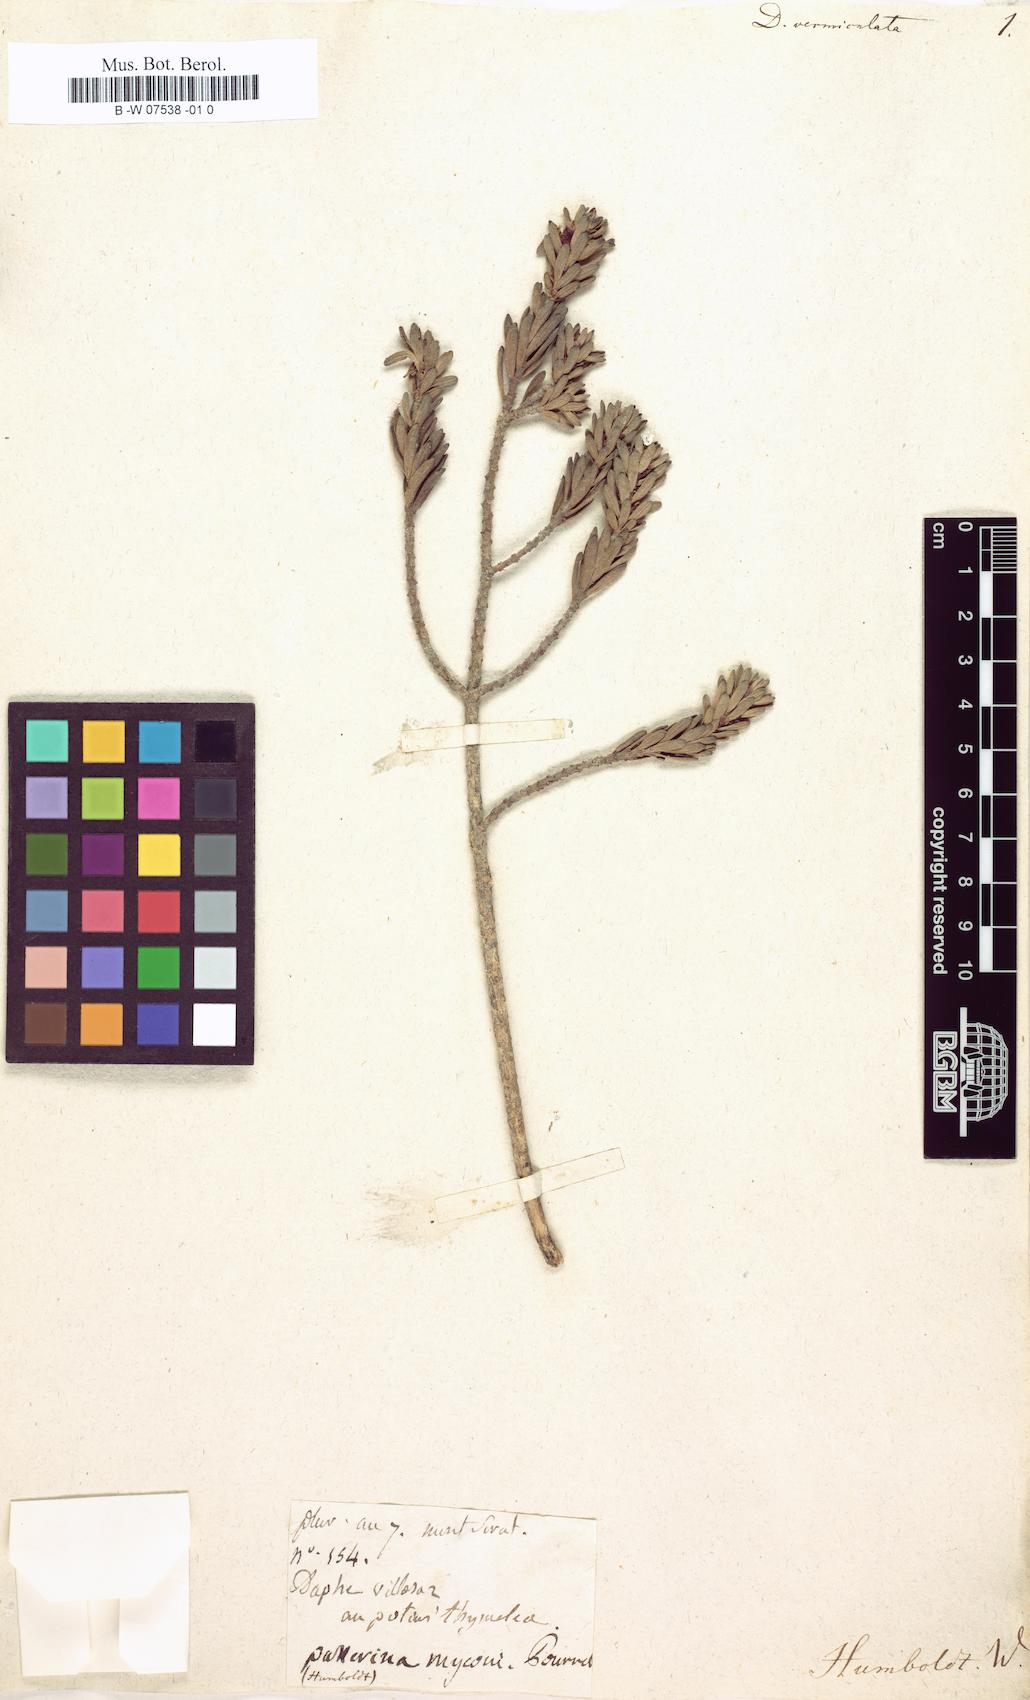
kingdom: Plantae
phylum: Tracheophyta
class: Magnoliopsida
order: Malvales
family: Thymelaeaceae
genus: Thymelaea
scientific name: Thymelaea tinctoria
